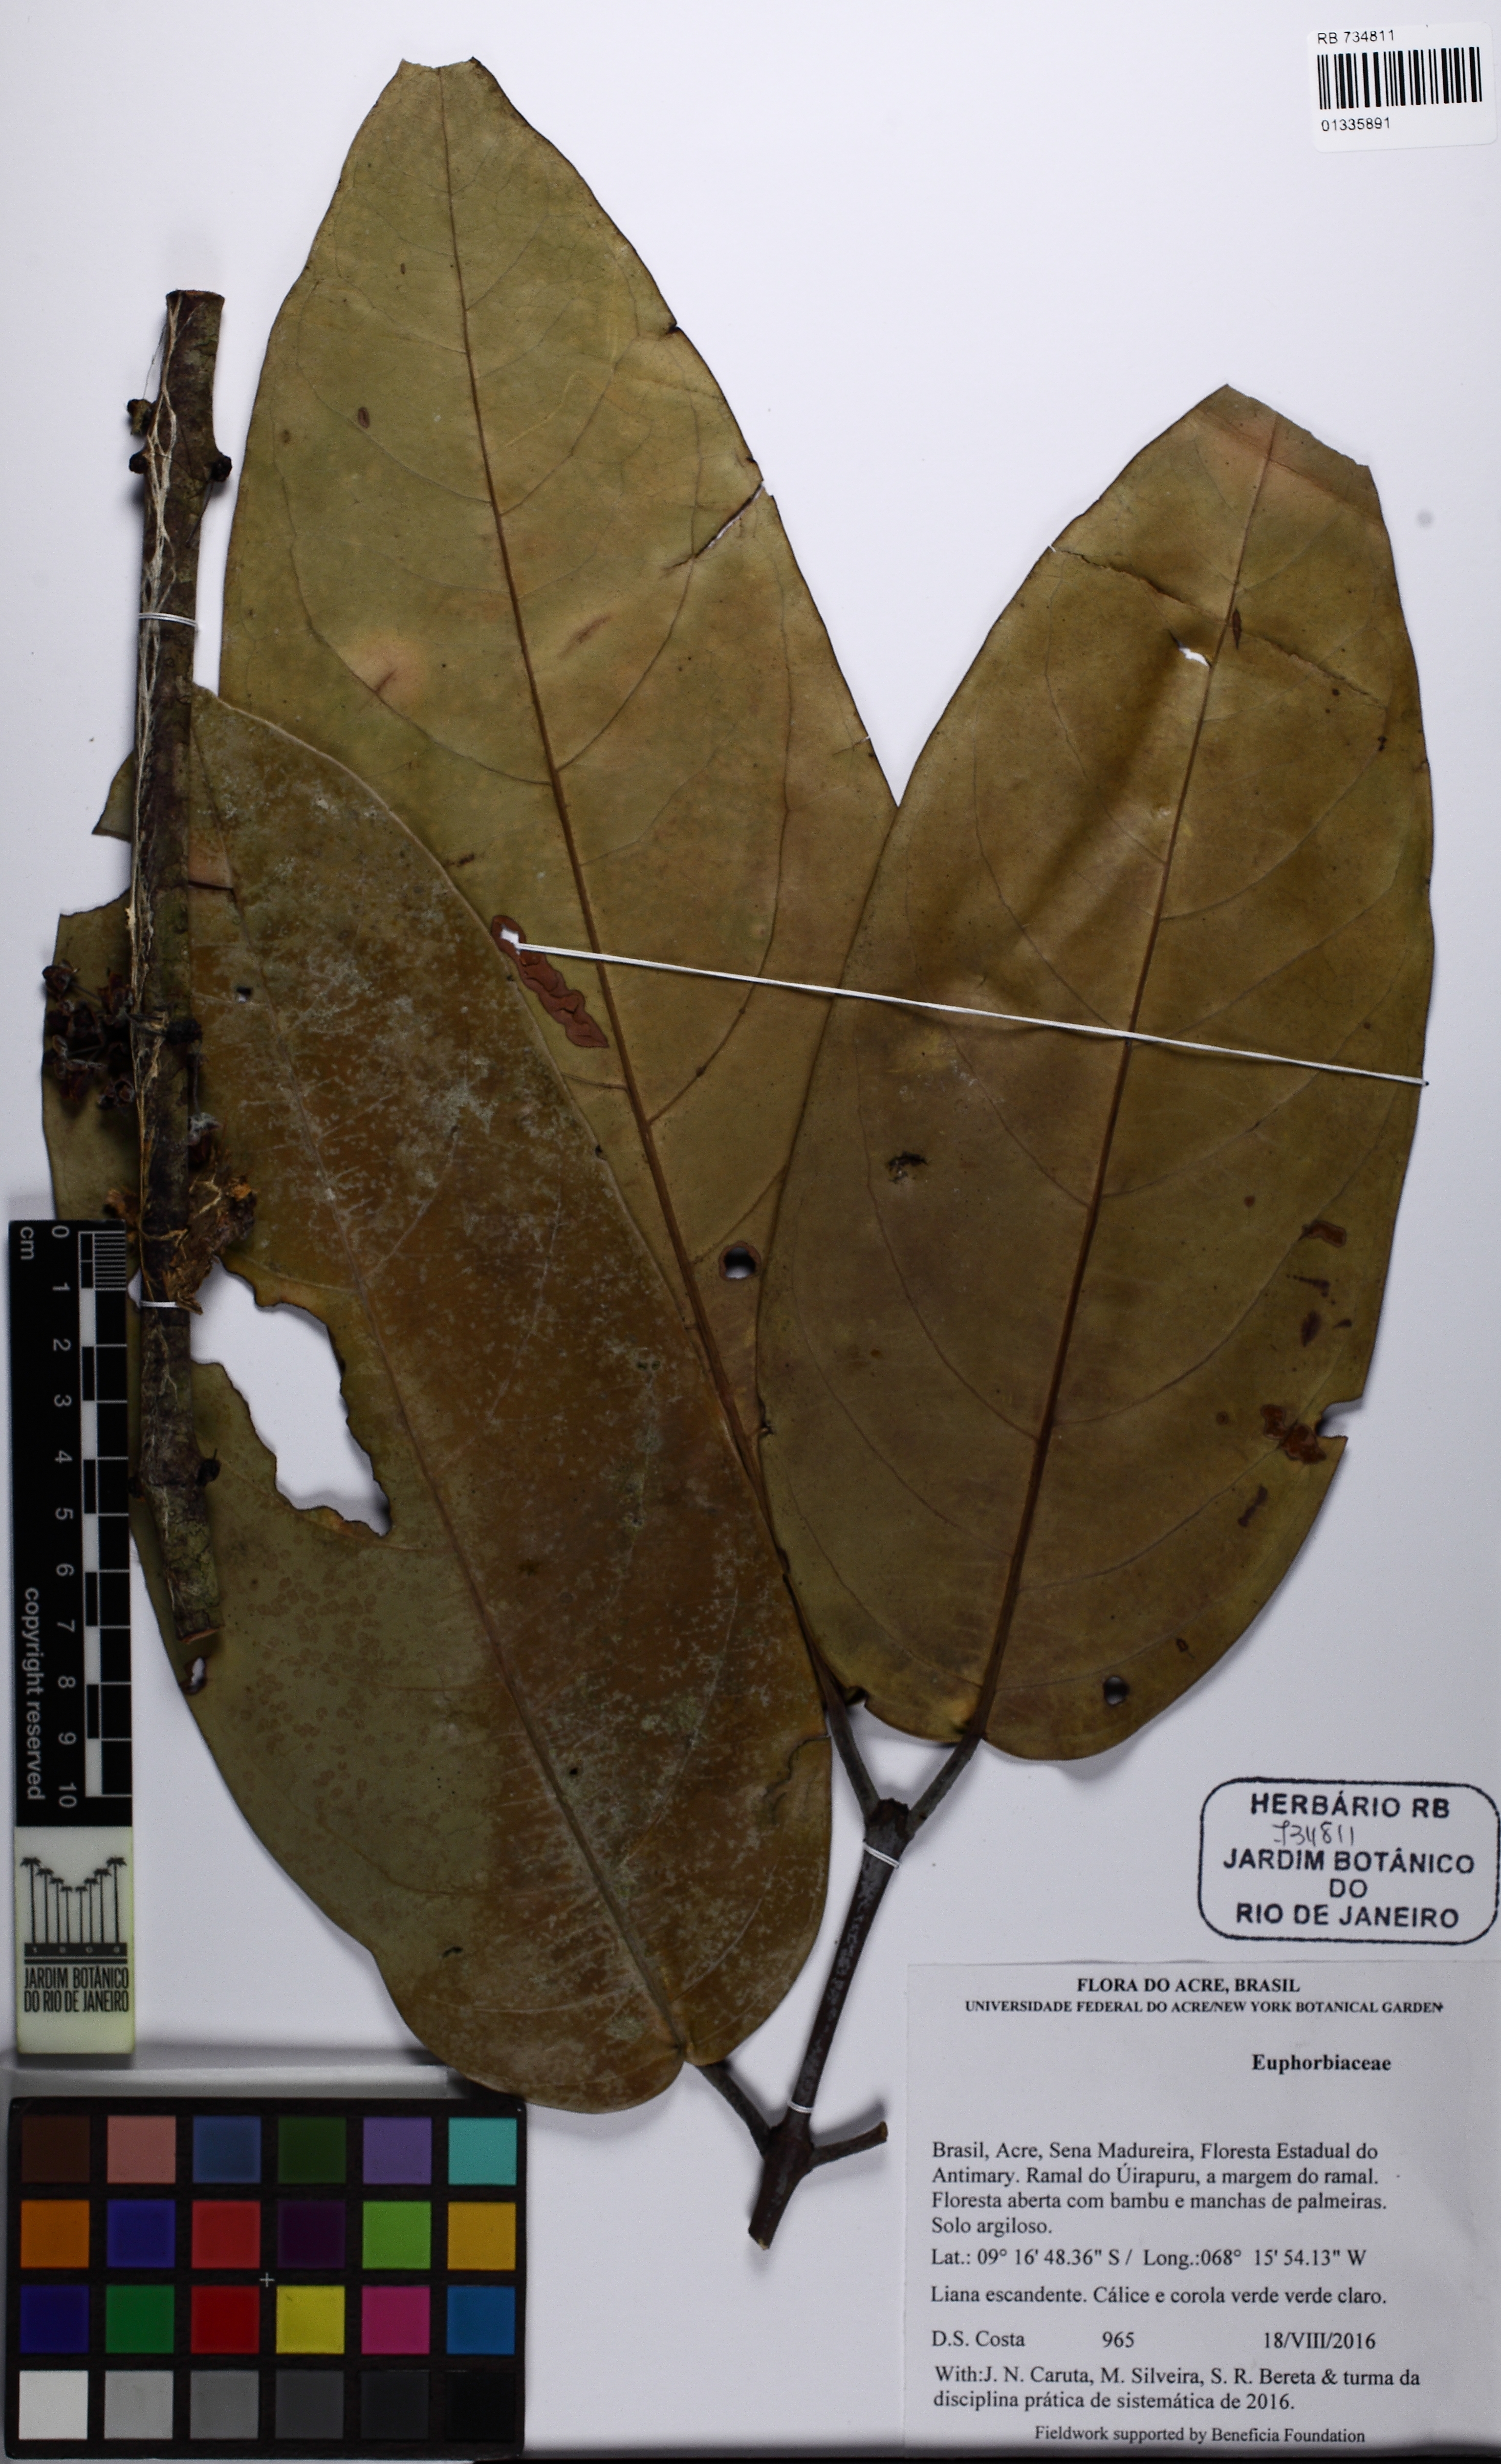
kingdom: Plantae
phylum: Tracheophyta
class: Magnoliopsida
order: Celastrales
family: Celastraceae
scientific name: Celastraceae
